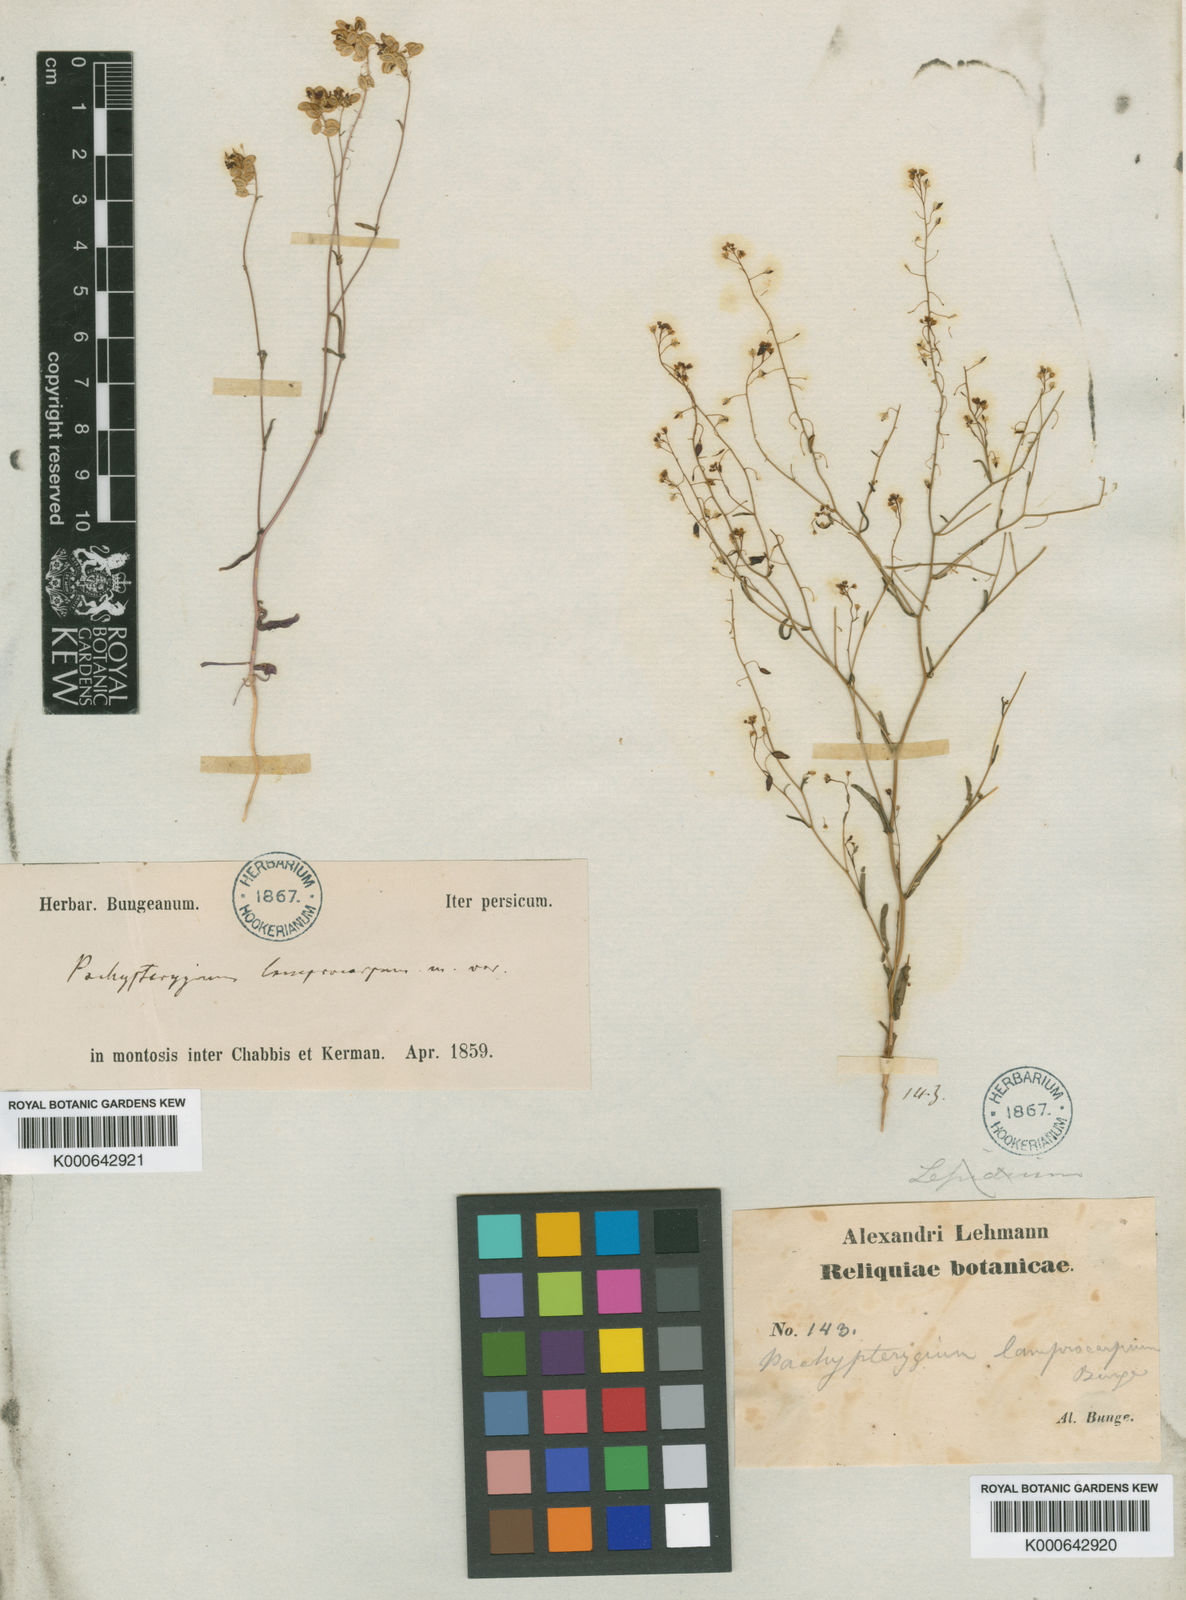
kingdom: Plantae
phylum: Tracheophyta
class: Magnoliopsida
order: Brassicales
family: Brassicaceae
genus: Isatis
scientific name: Isatis multicaulis
